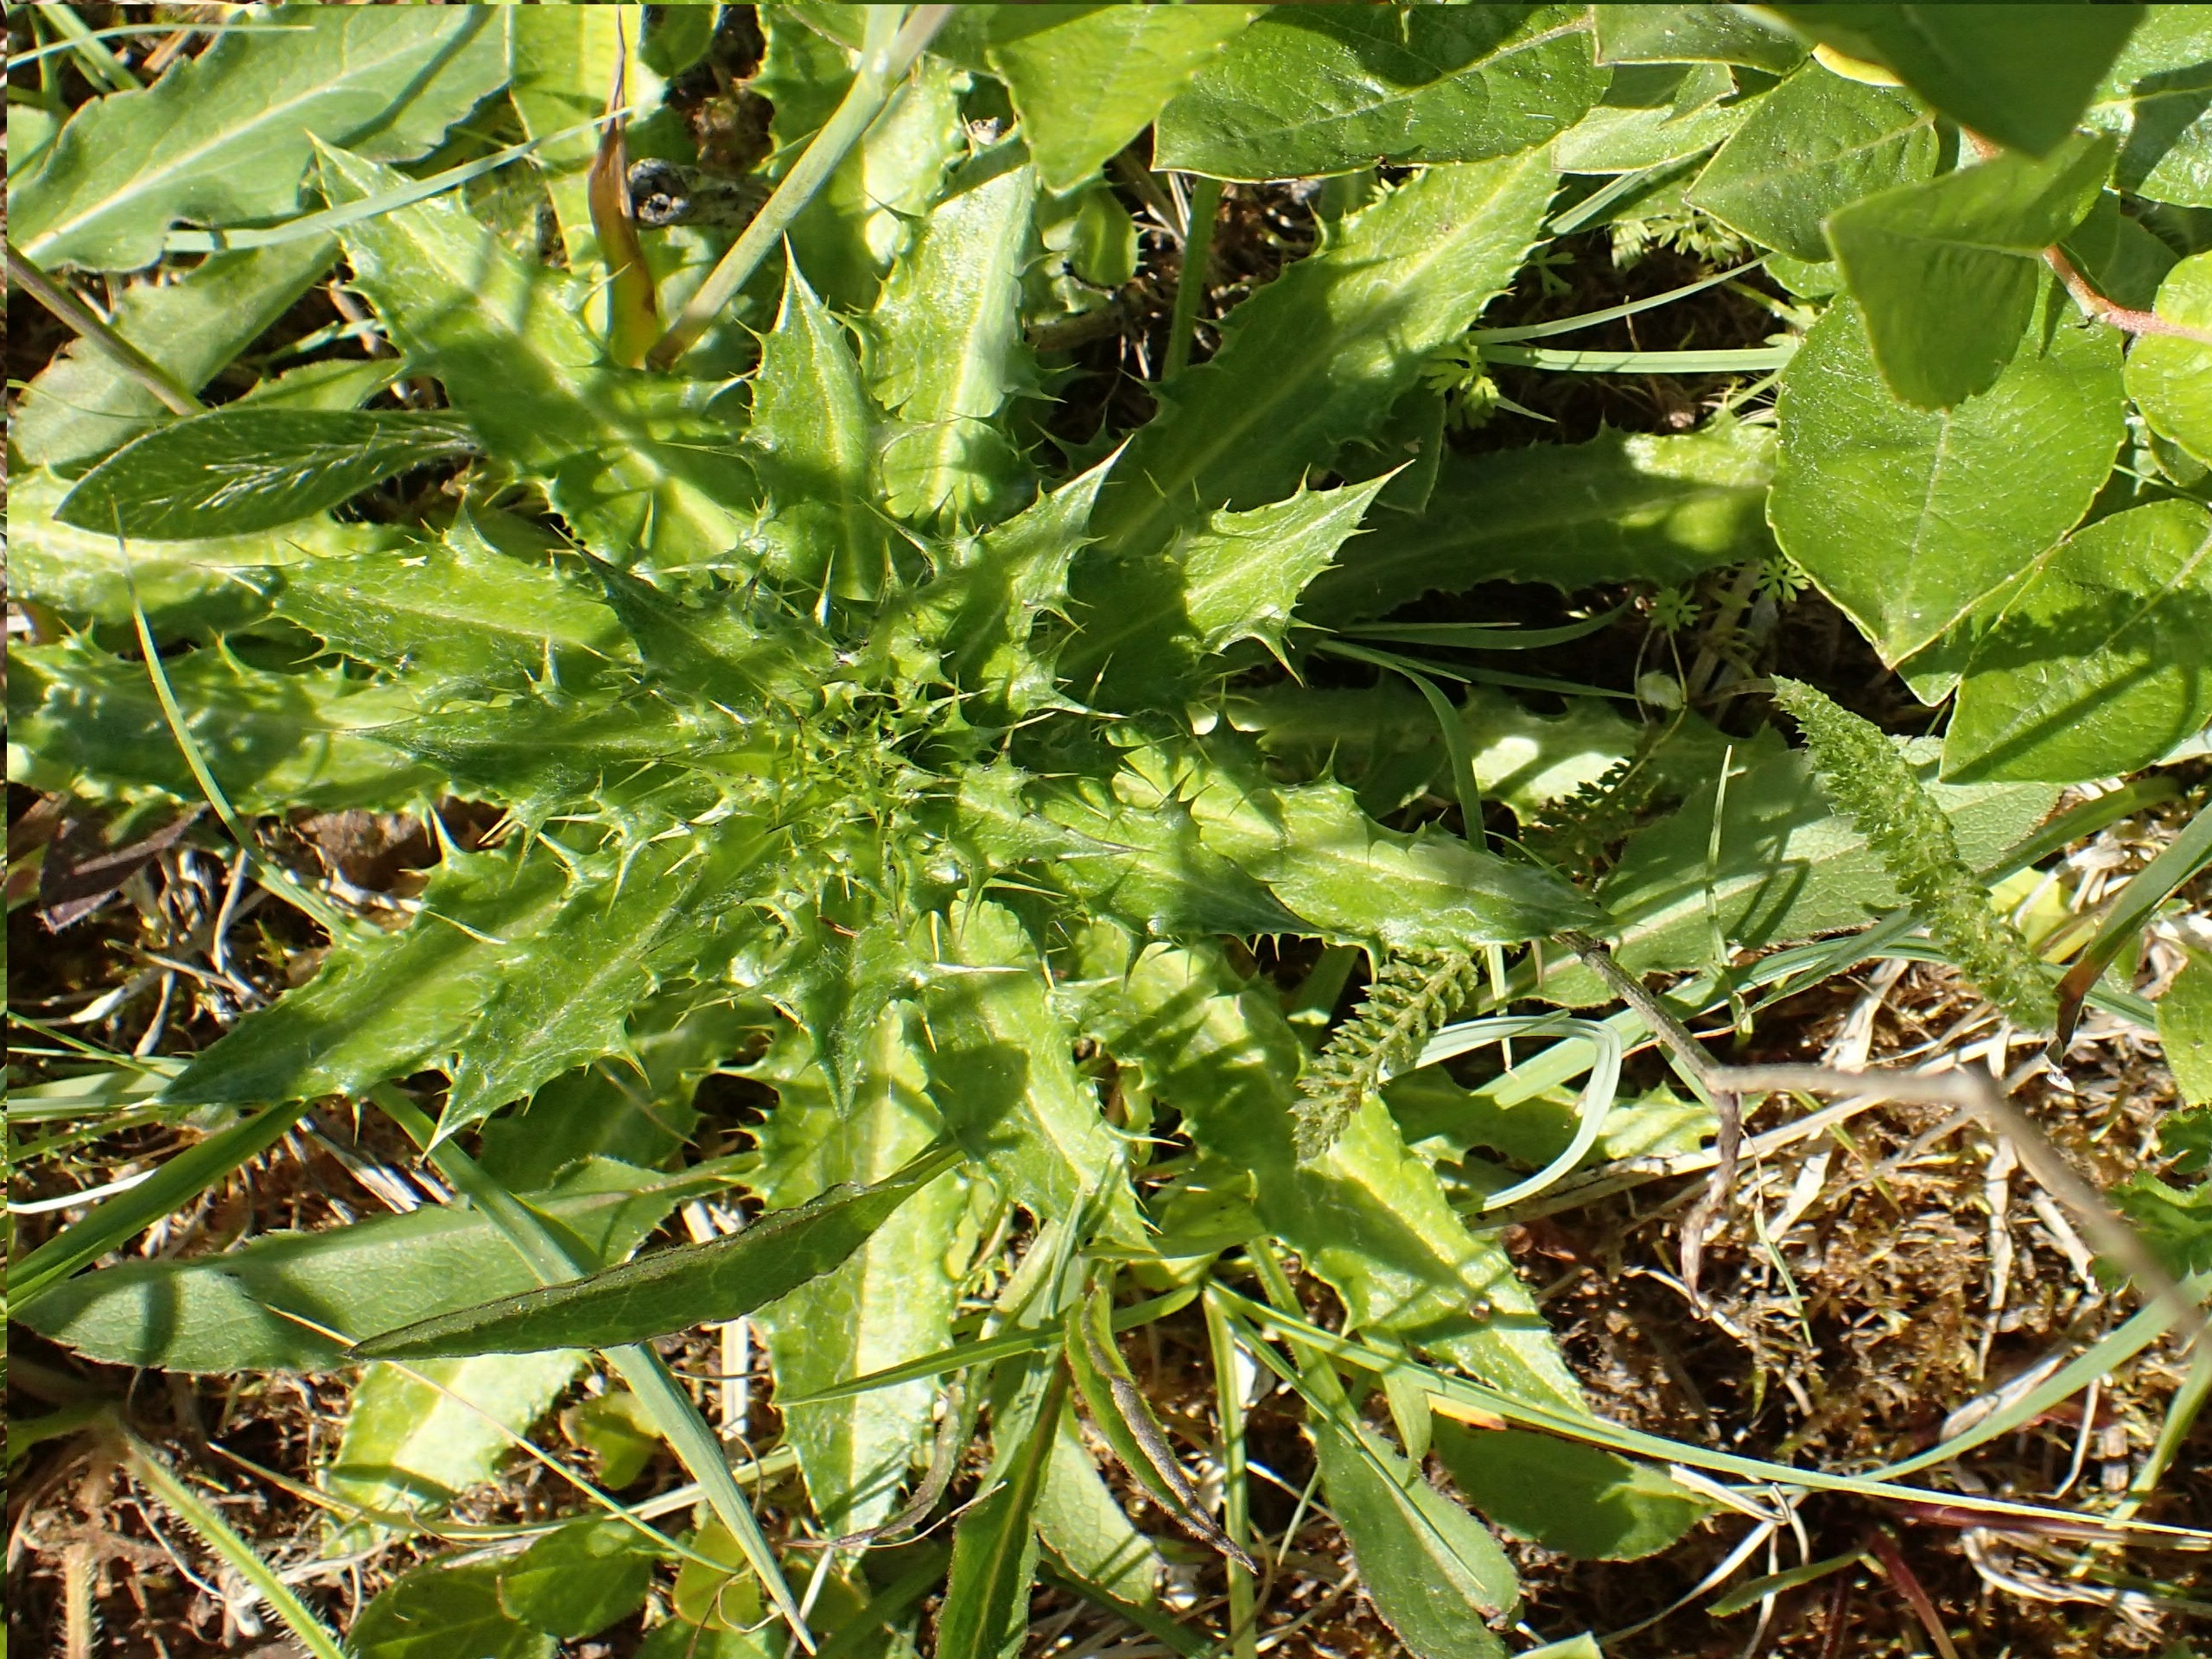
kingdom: Plantae
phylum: Tracheophyta
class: Magnoliopsida
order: Asterales
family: Asteraceae
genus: Carlina
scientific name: Carlina vulgaris
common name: Bakketidsel
